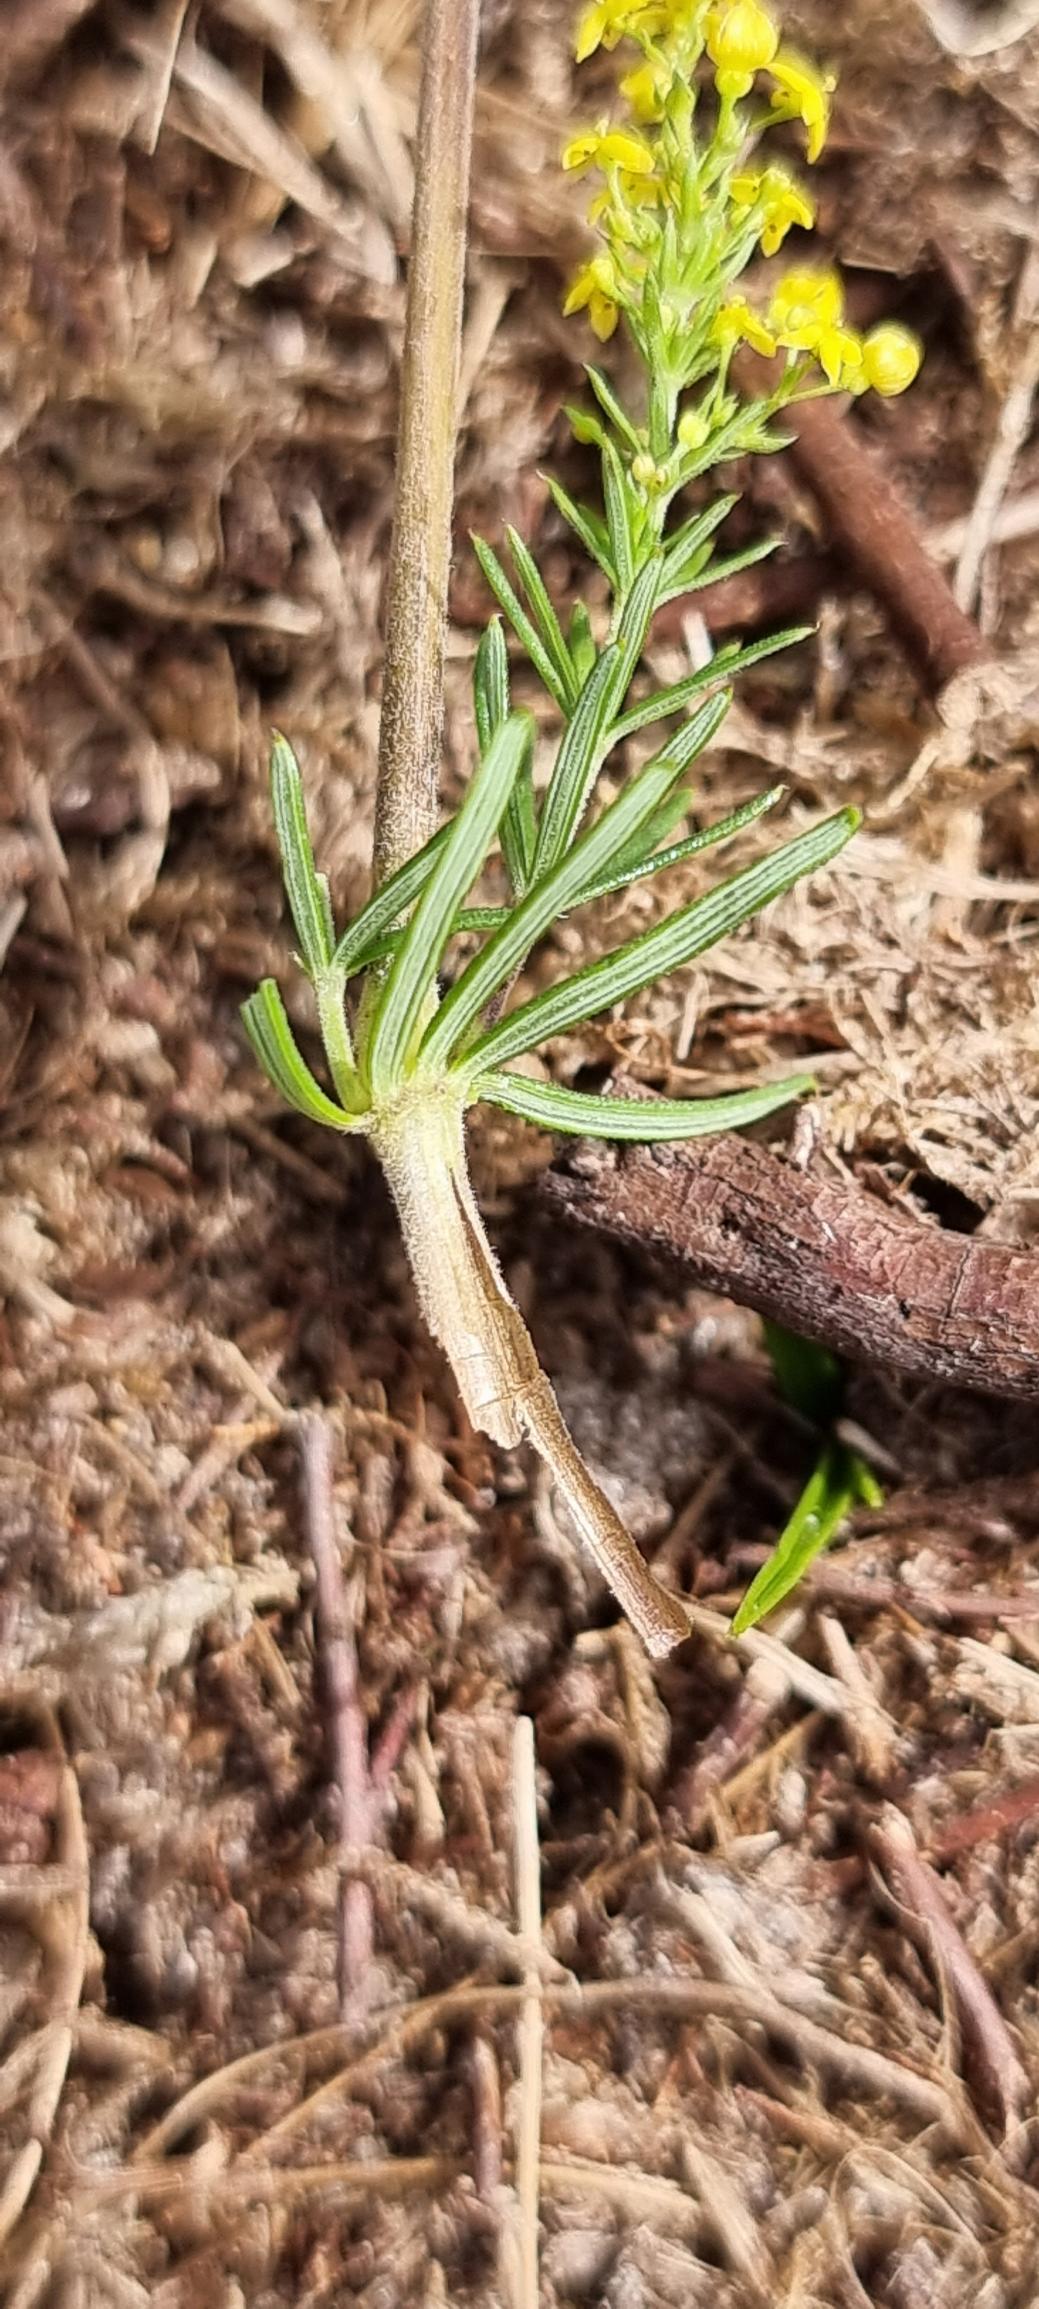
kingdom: Plantae
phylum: Tracheophyta
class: Magnoliopsida
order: Gentianales
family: Rubiaceae
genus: Galium
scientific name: Galium verum
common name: Gul snerre
